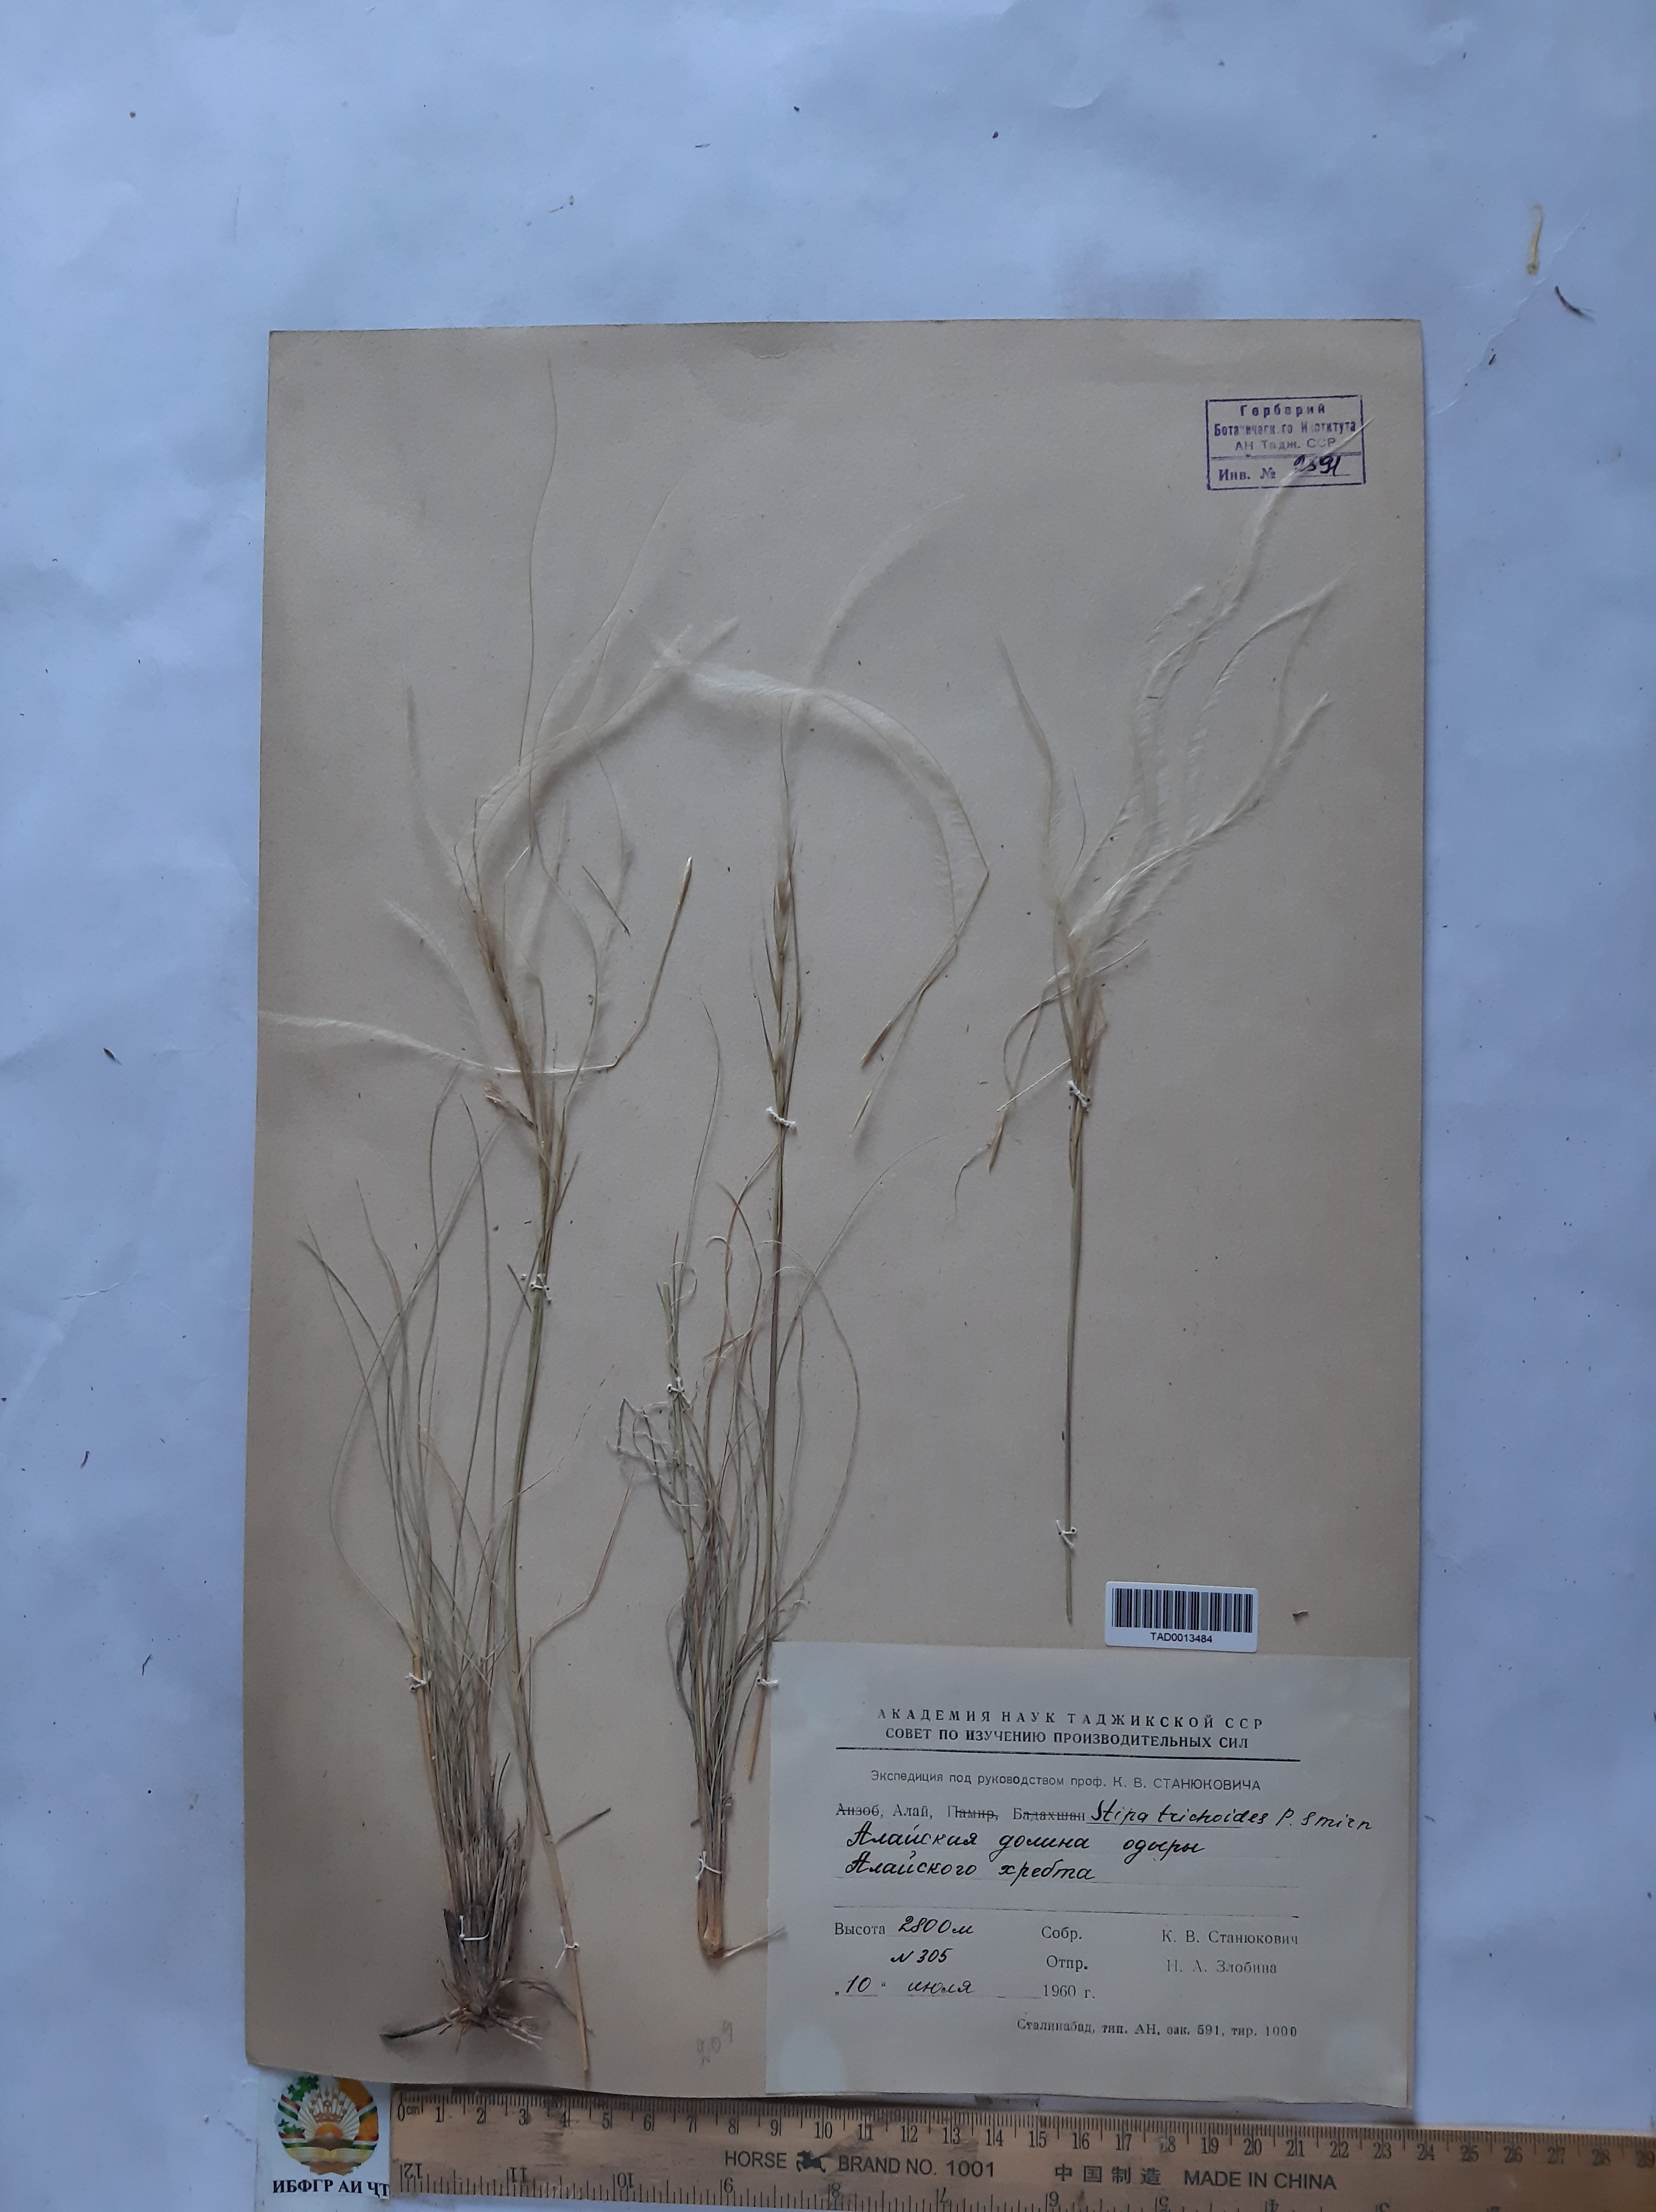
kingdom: Plantae
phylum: Tracheophyta
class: Liliopsida
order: Poales
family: Poaceae
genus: Stipa
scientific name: Stipa trichoides
